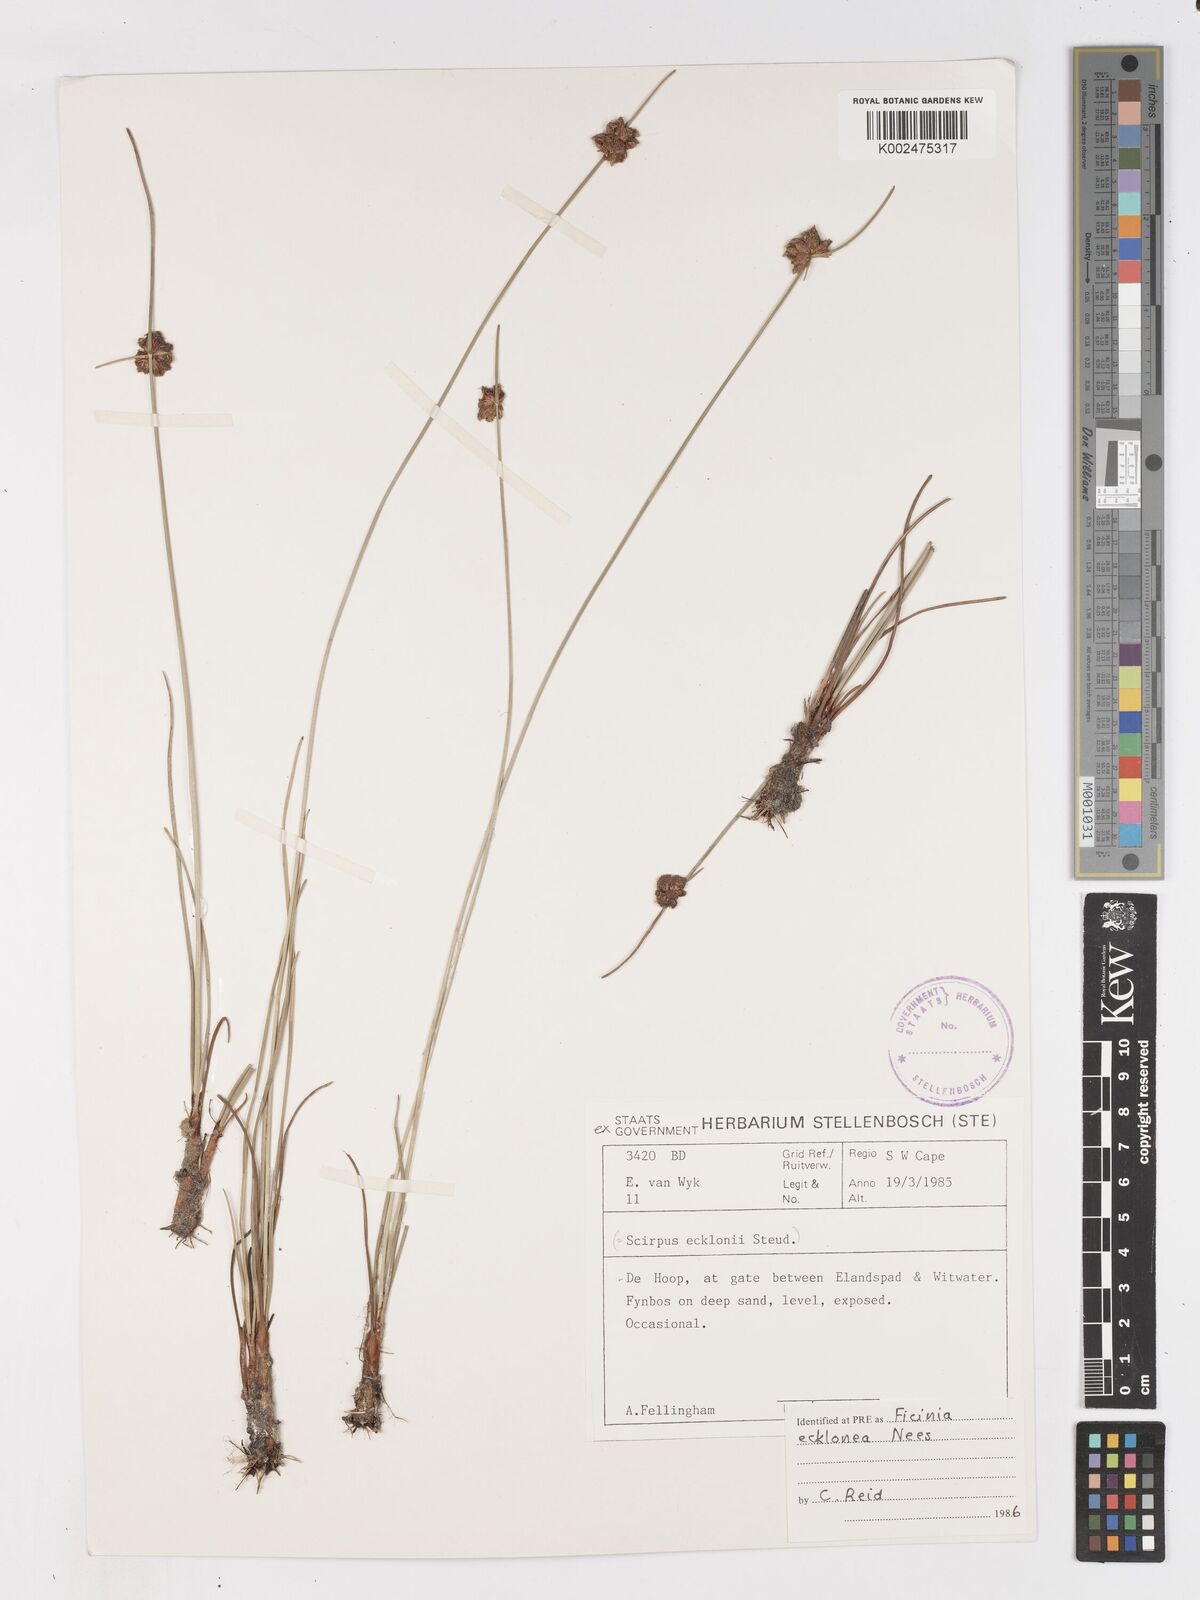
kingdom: Plantae
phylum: Tracheophyta
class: Liliopsida
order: Poales
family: Cyperaceae
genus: Ficinia
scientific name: Ficinia ecklonea
